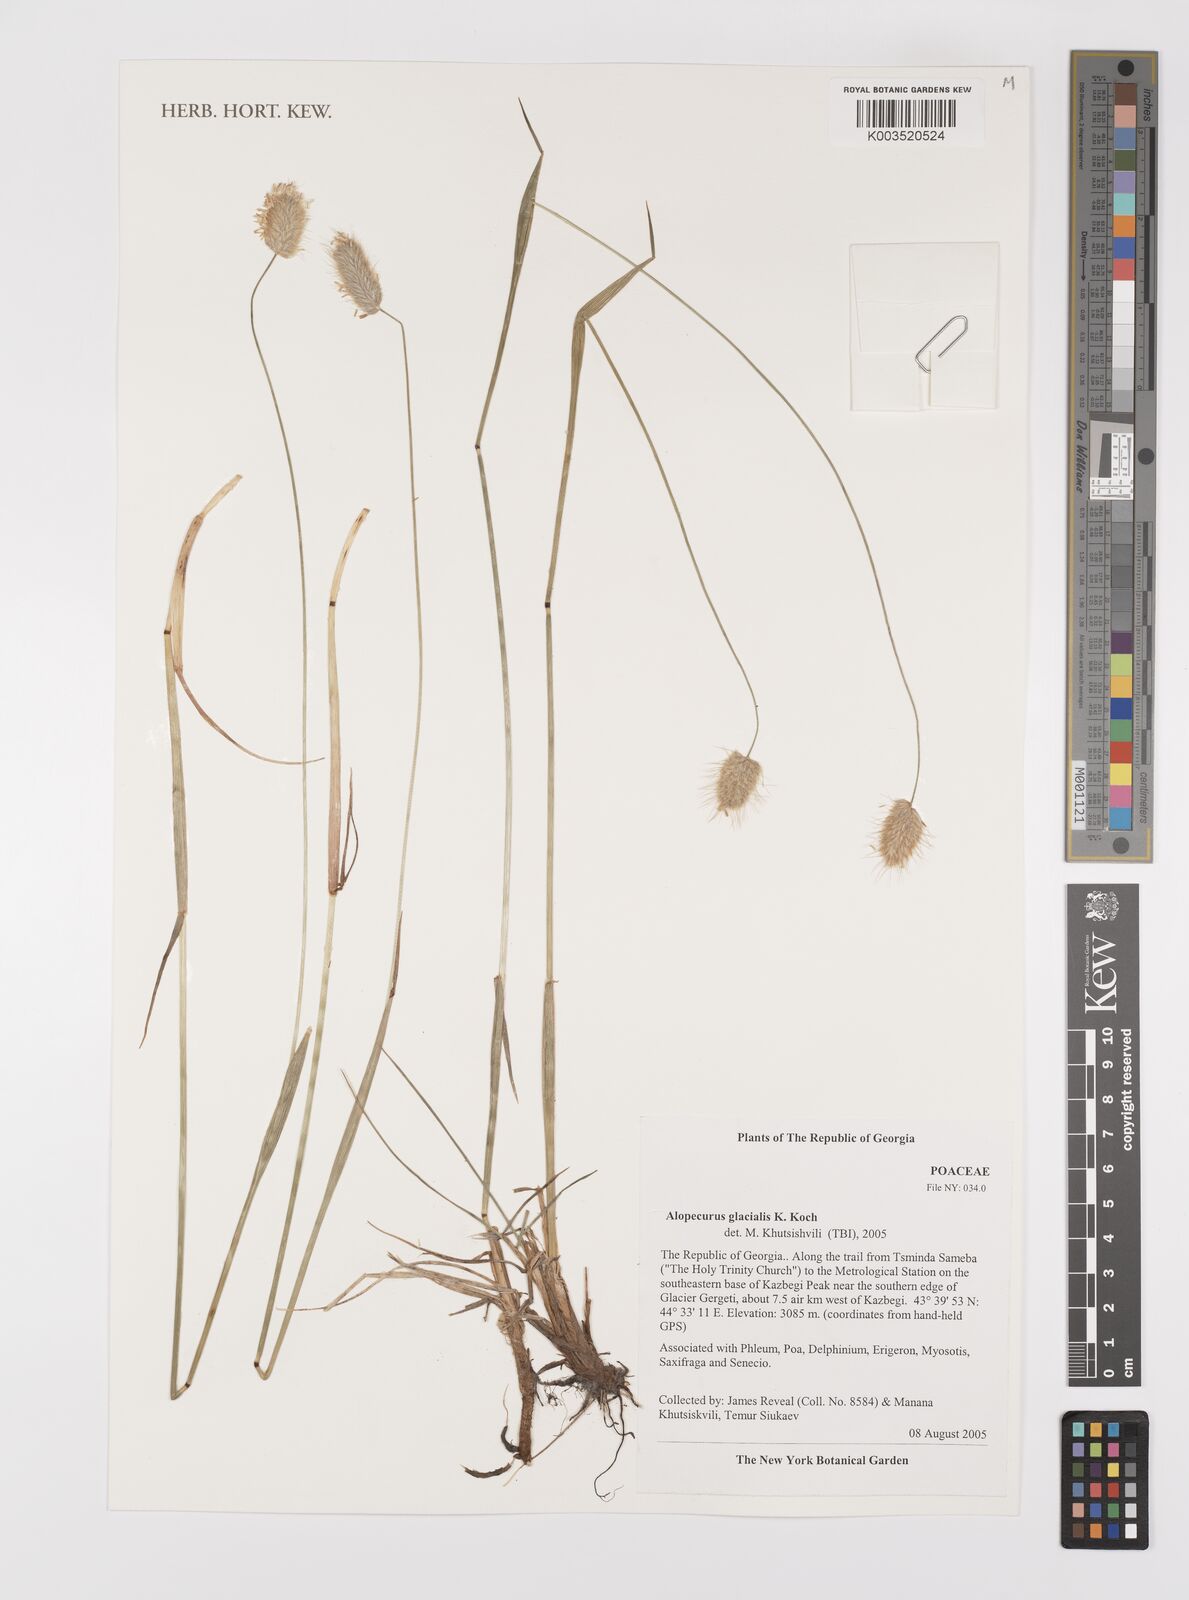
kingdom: Plantae
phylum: Tracheophyta
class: Liliopsida
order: Poales
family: Poaceae
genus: Alopecurus
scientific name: Alopecurus glacialis
